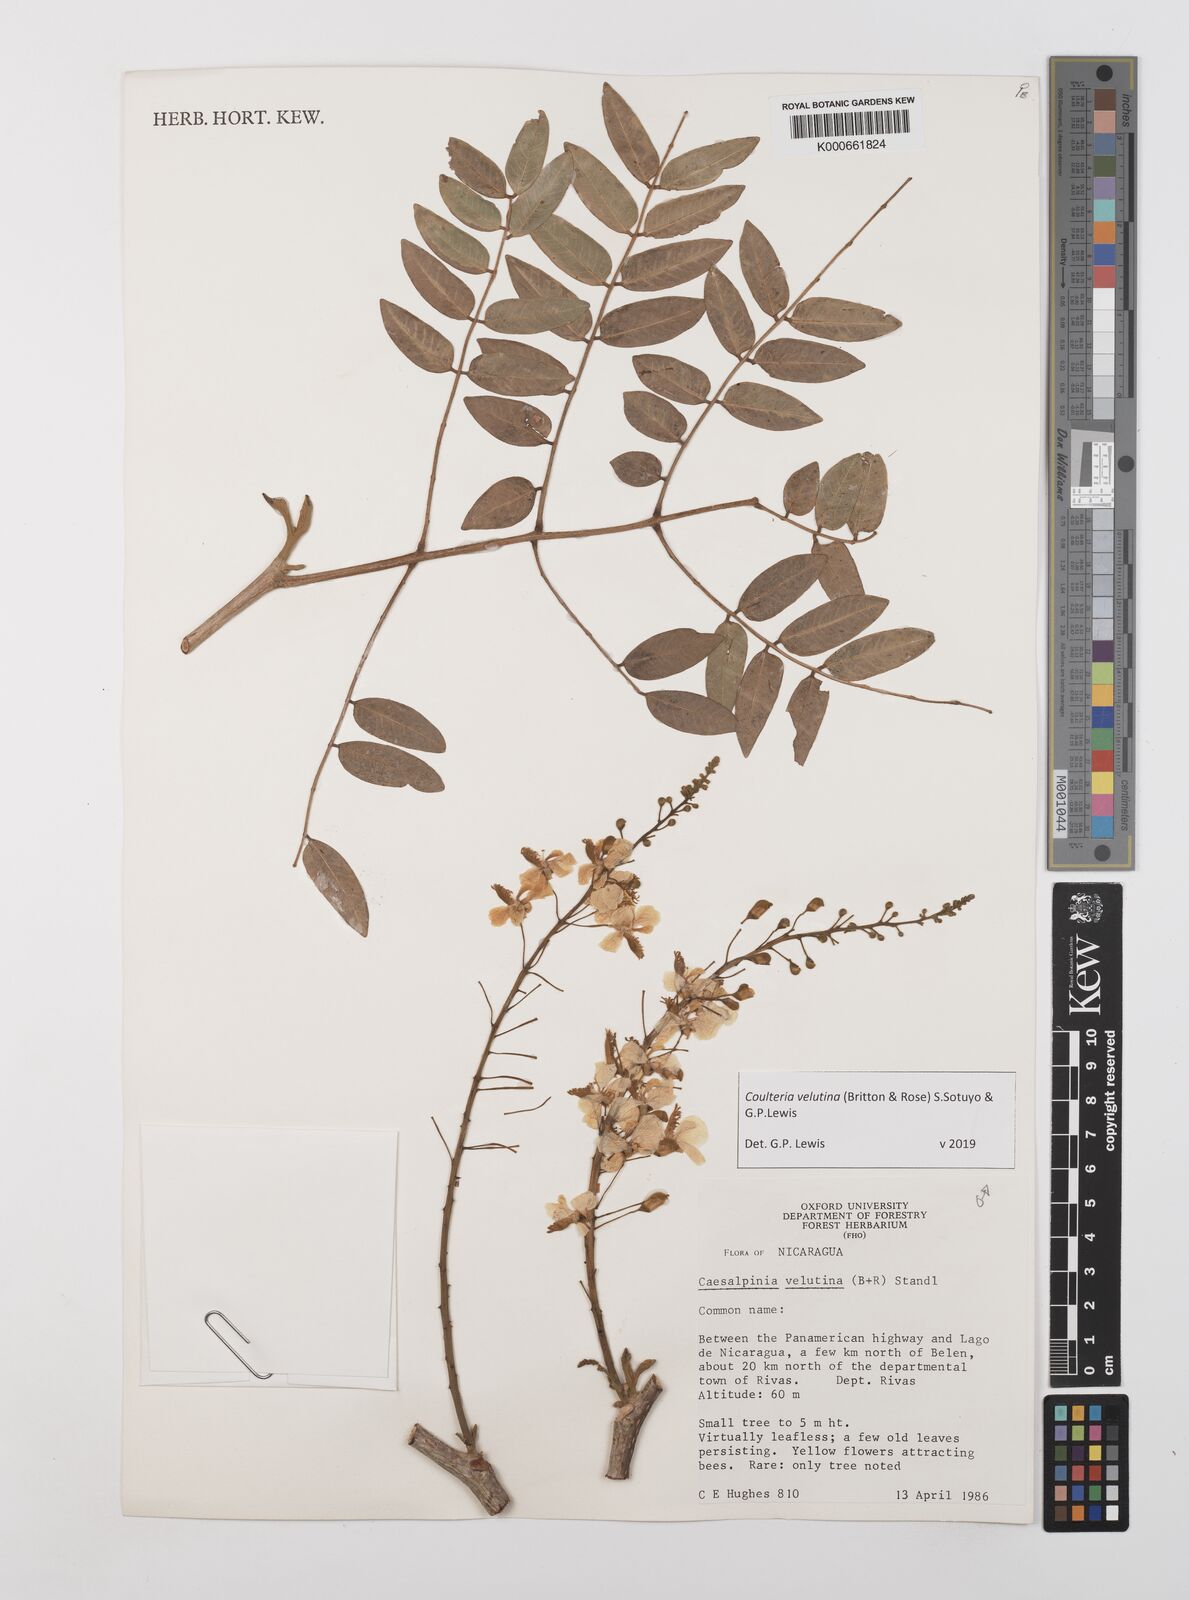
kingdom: Plantae
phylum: Tracheophyta
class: Magnoliopsida
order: Fabales
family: Fabaceae
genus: Coulteria
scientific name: Coulteria velutina
